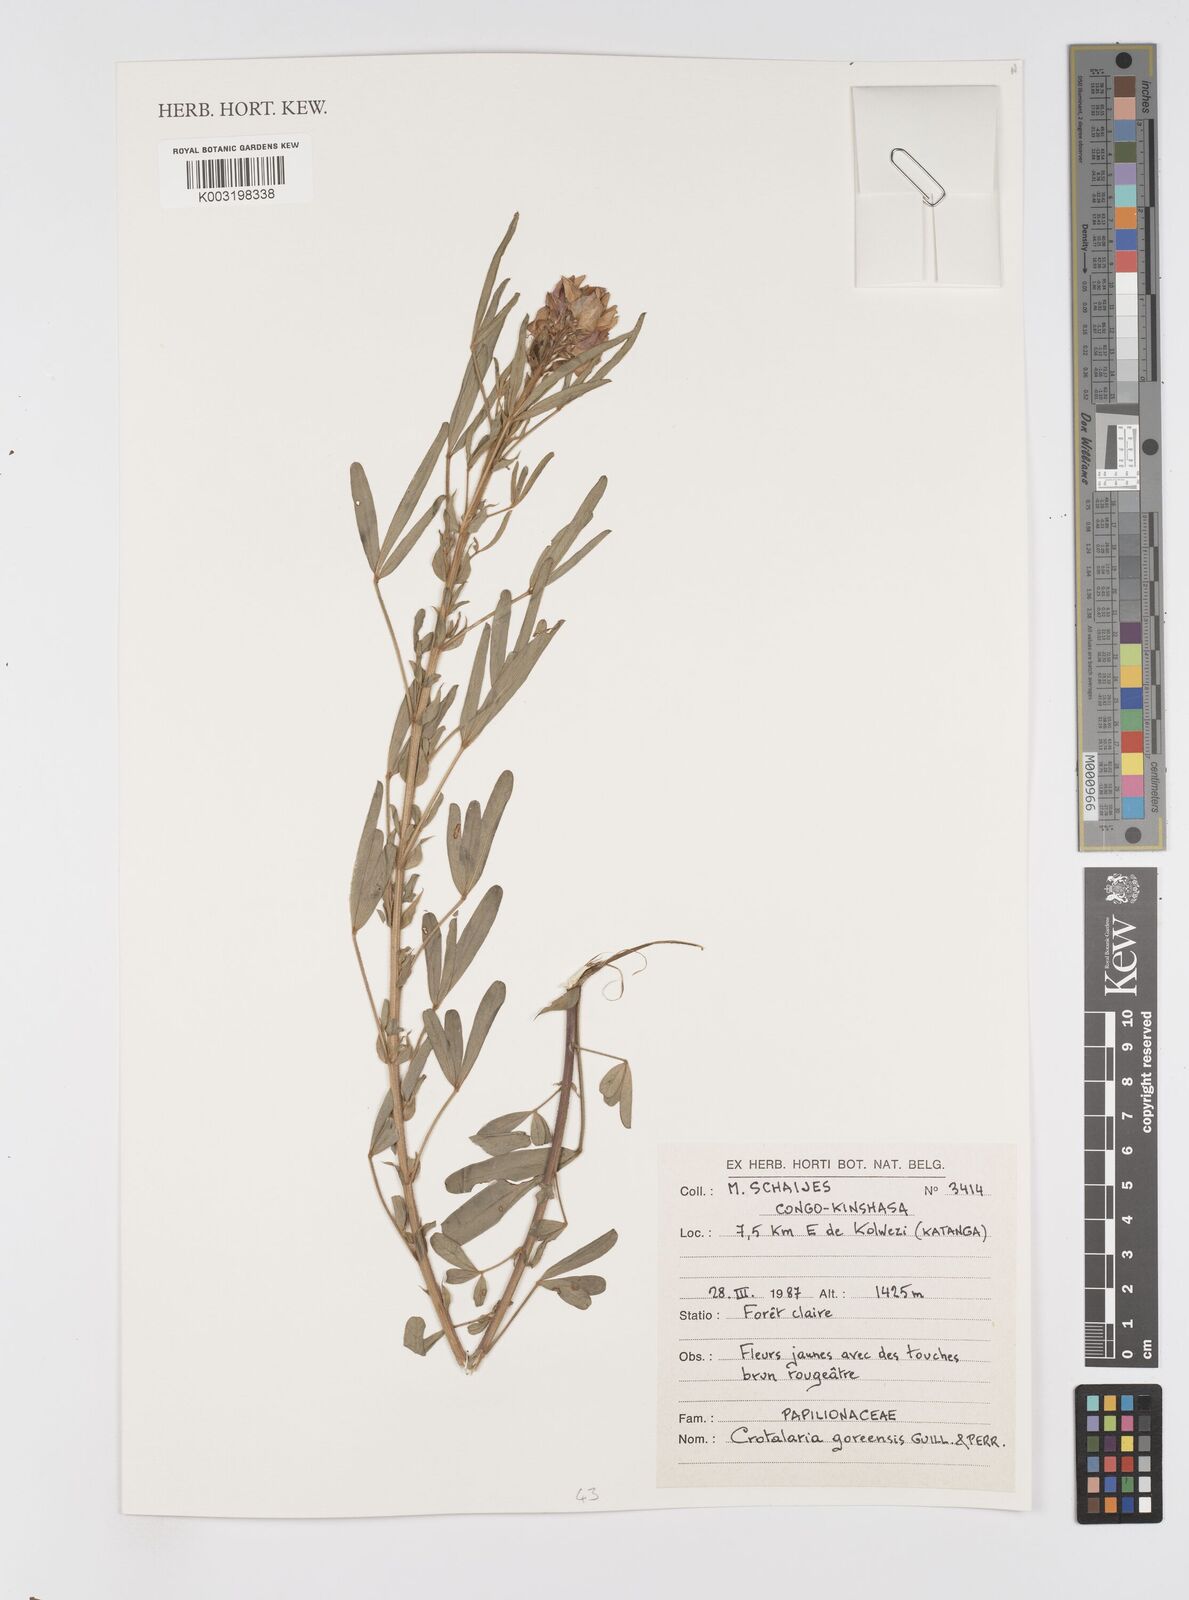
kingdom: Plantae
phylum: Tracheophyta
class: Magnoliopsida
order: Fabales
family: Fabaceae
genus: Crotalaria
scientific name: Crotalaria goreensis
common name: Gambia-pea
